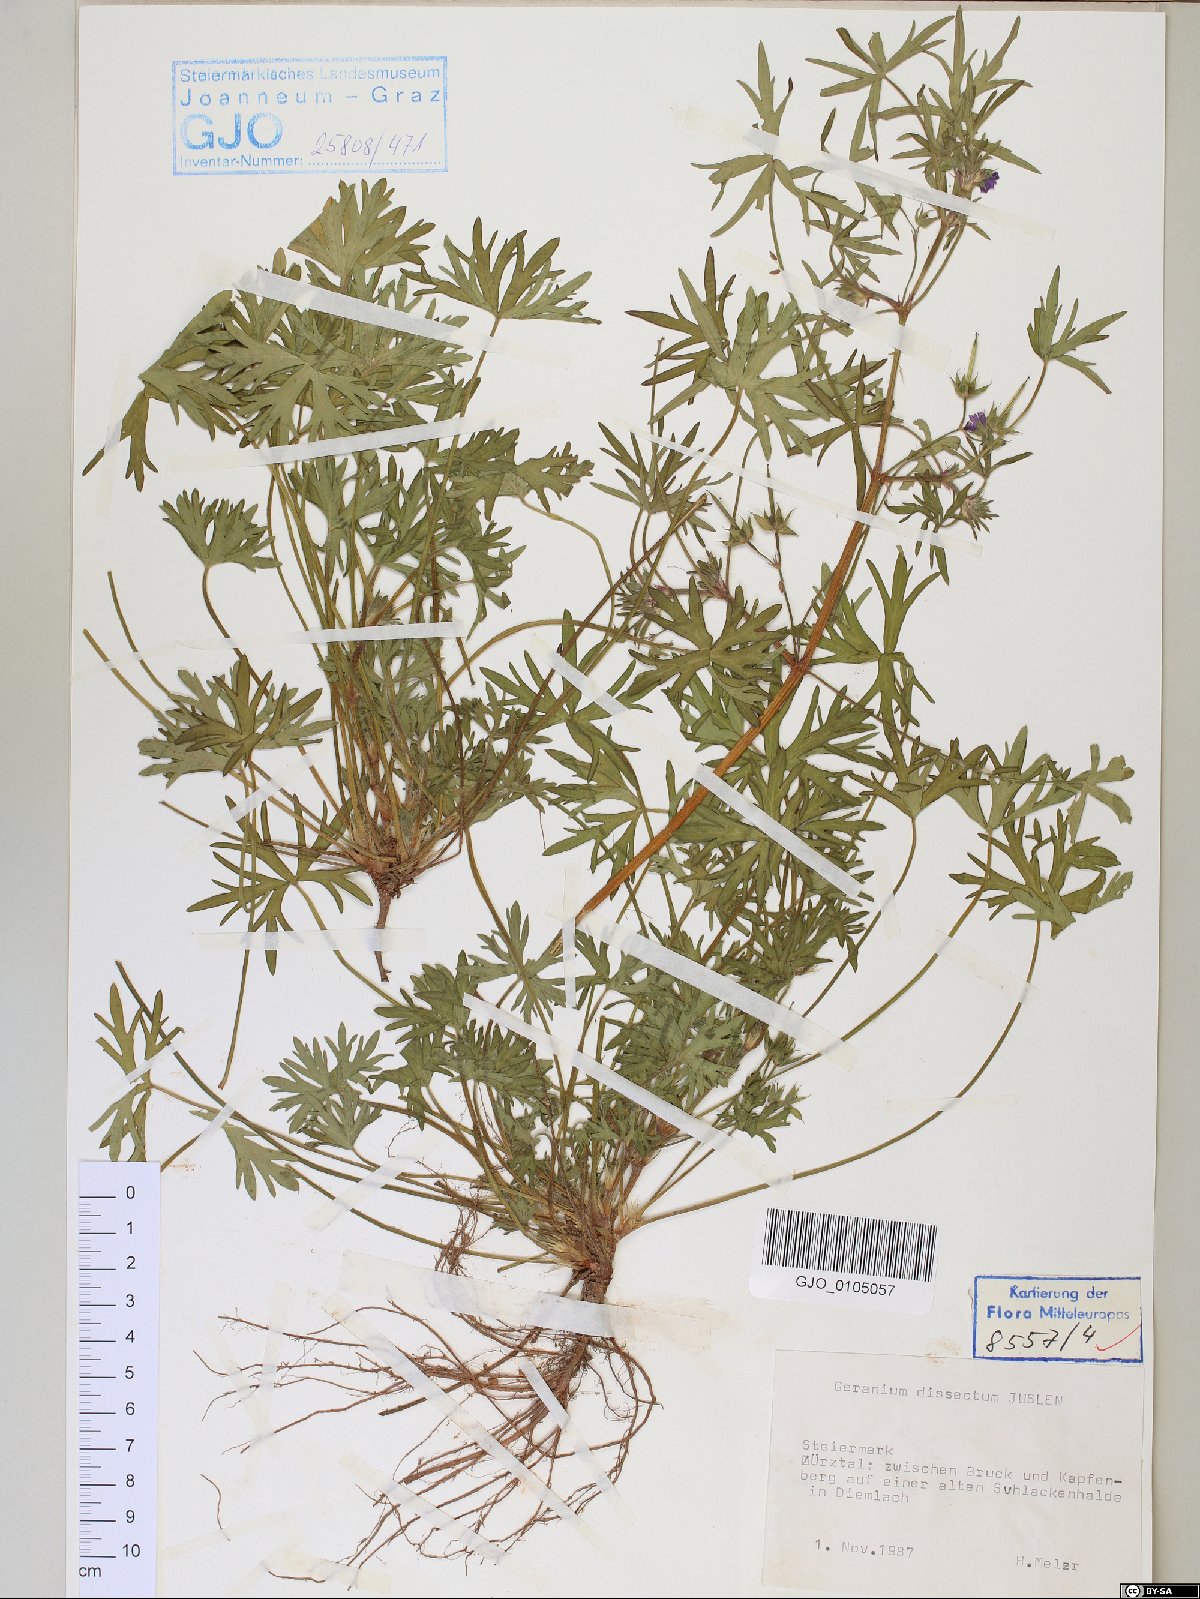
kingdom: Plantae
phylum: Tracheophyta
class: Magnoliopsida
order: Geraniales
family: Geraniaceae
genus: Geranium
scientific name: Geranium dissectum
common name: Cut-leaved crane's-bill
